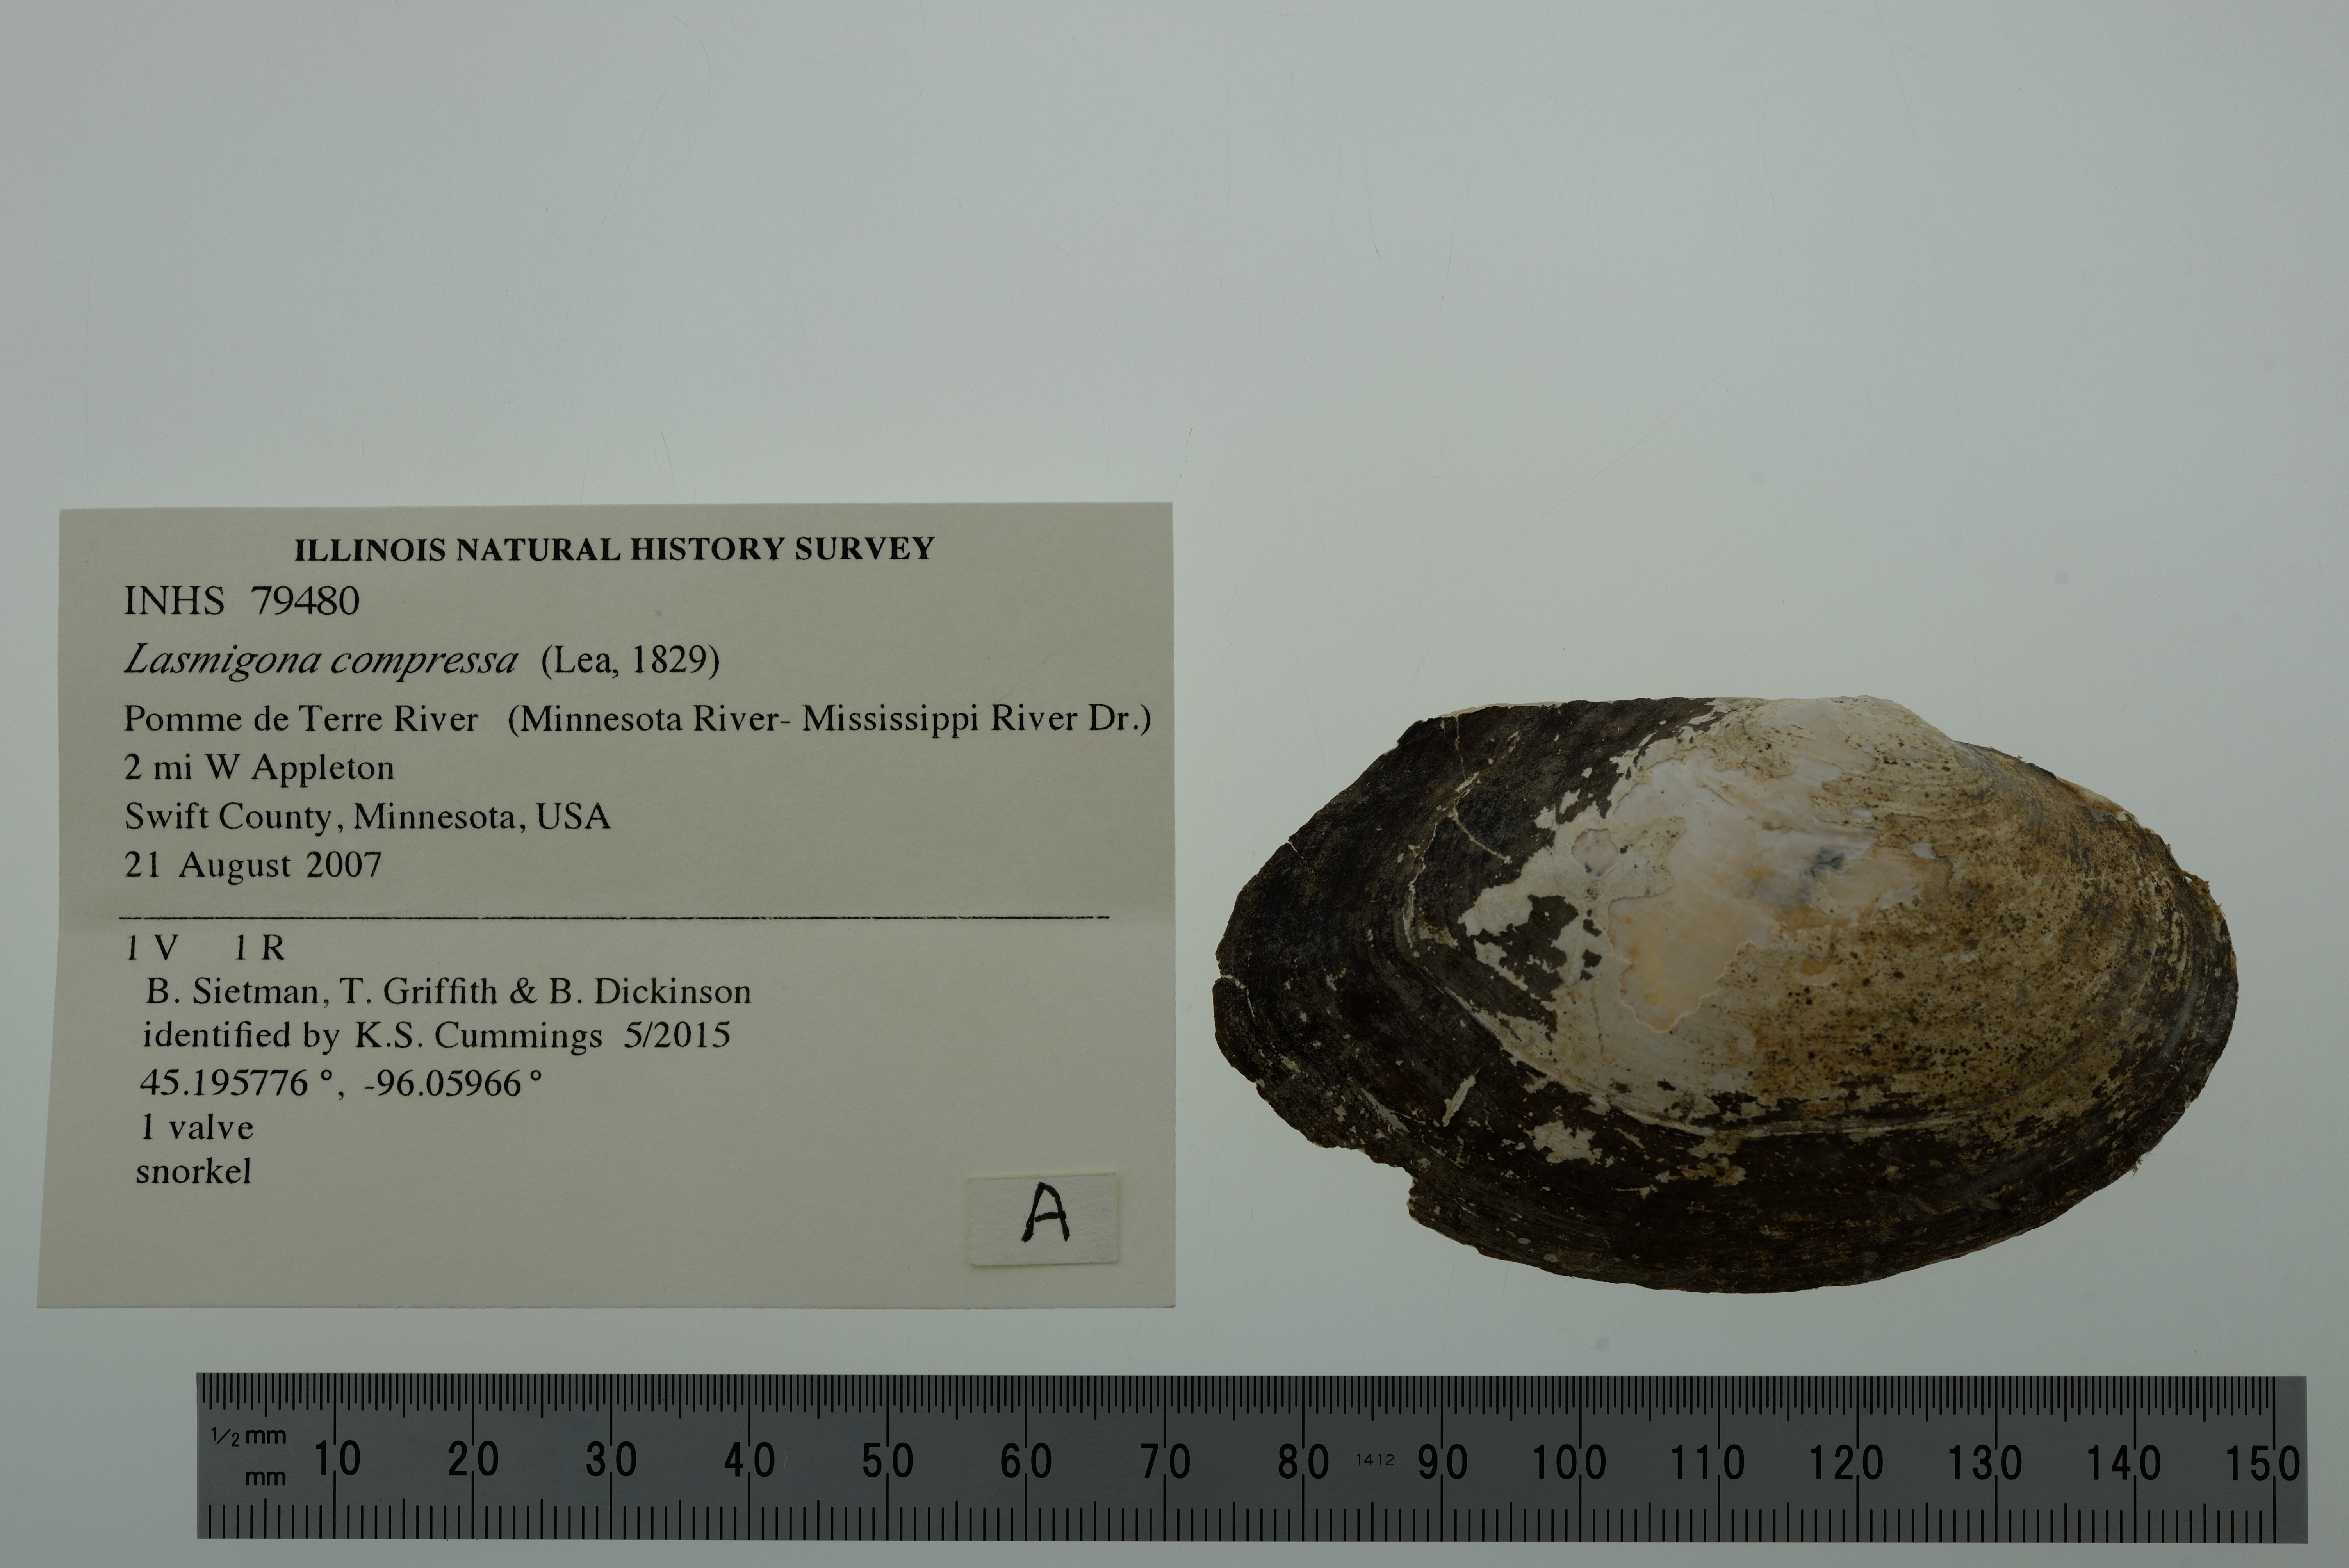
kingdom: Animalia
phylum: Mollusca
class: Bivalvia
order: Unionida
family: Unionidae
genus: Lasmigona
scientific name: Lasmigona compressa
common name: Creek heelsplitter
